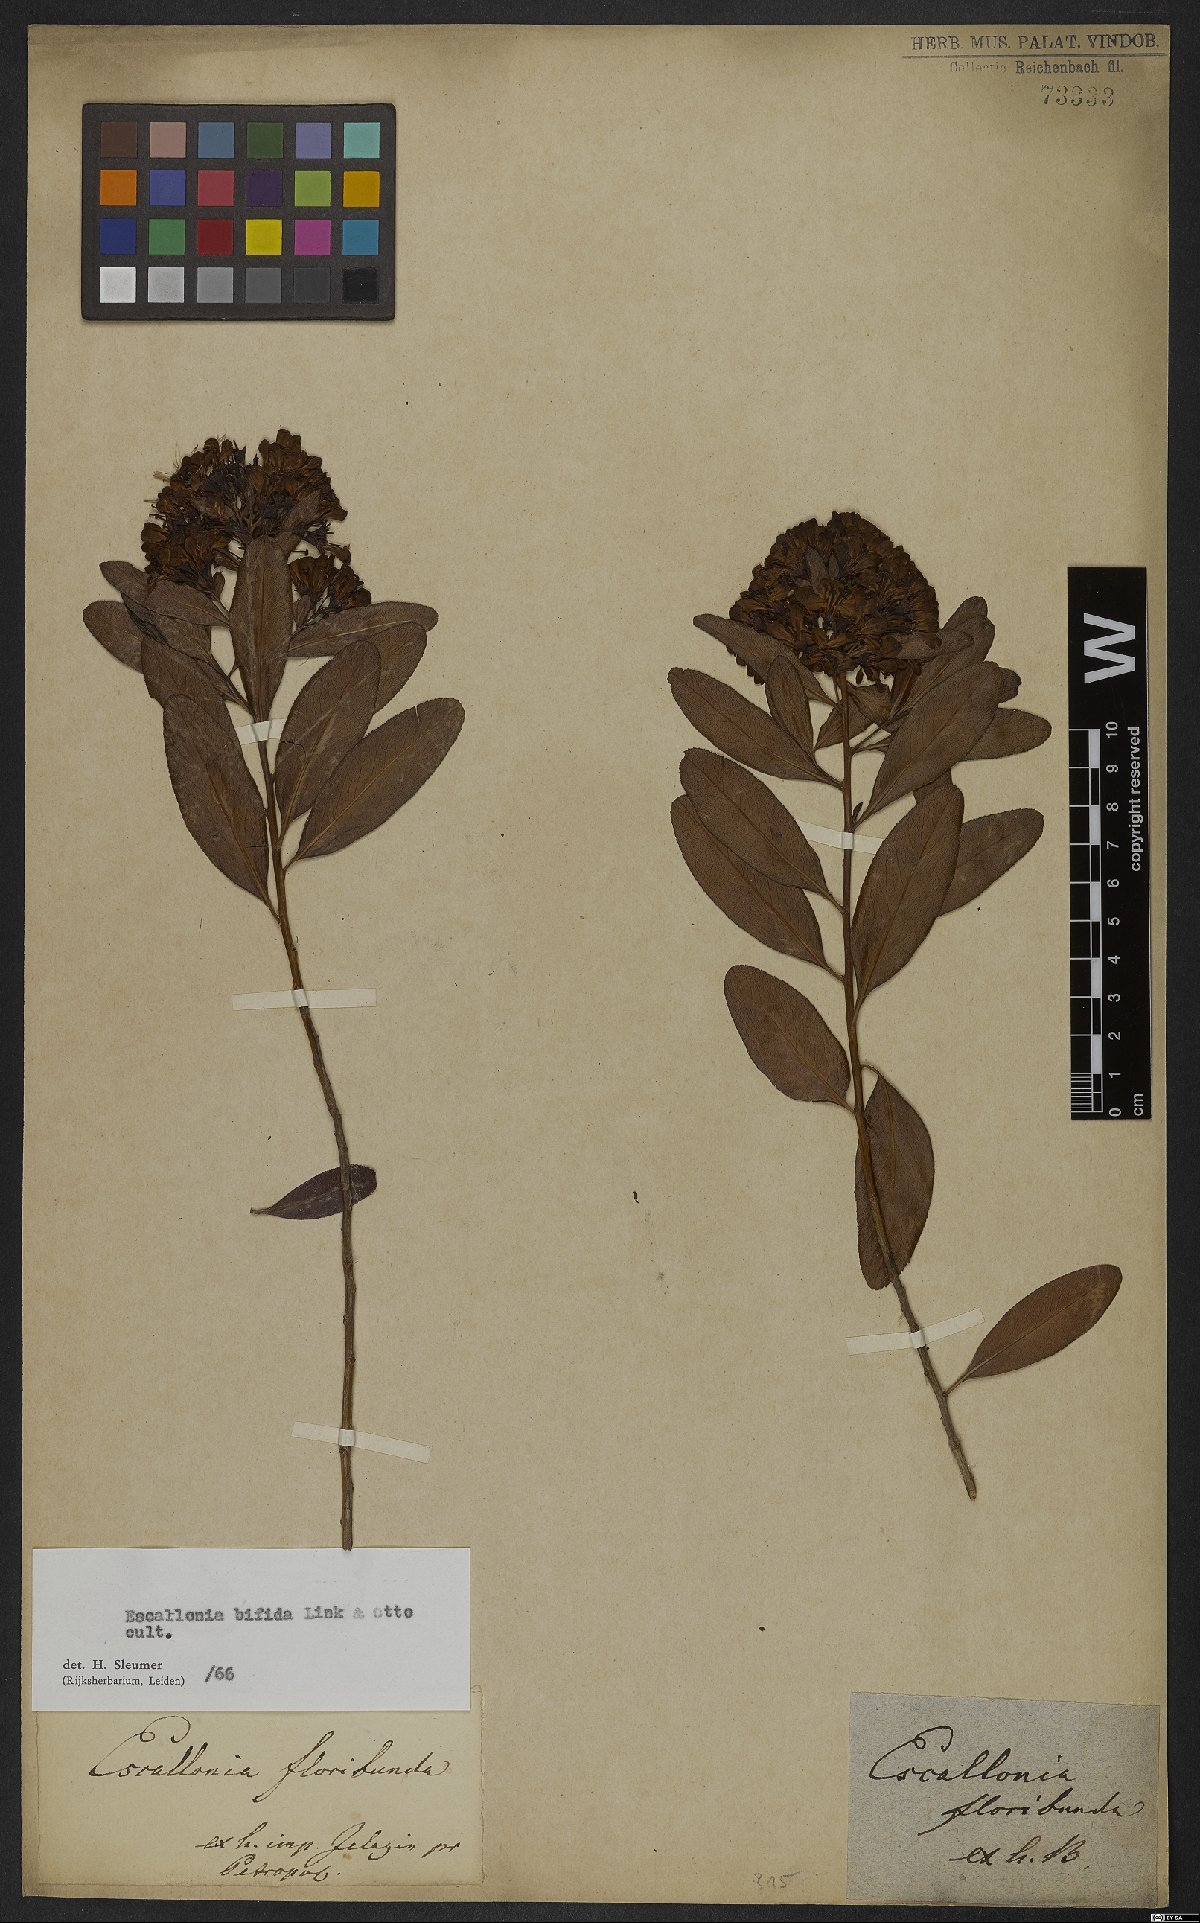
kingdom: Plantae
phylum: Tracheophyta
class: Magnoliopsida
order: Escalloniales
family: Escalloniaceae
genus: Escallonia
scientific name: Escallonia bifida
